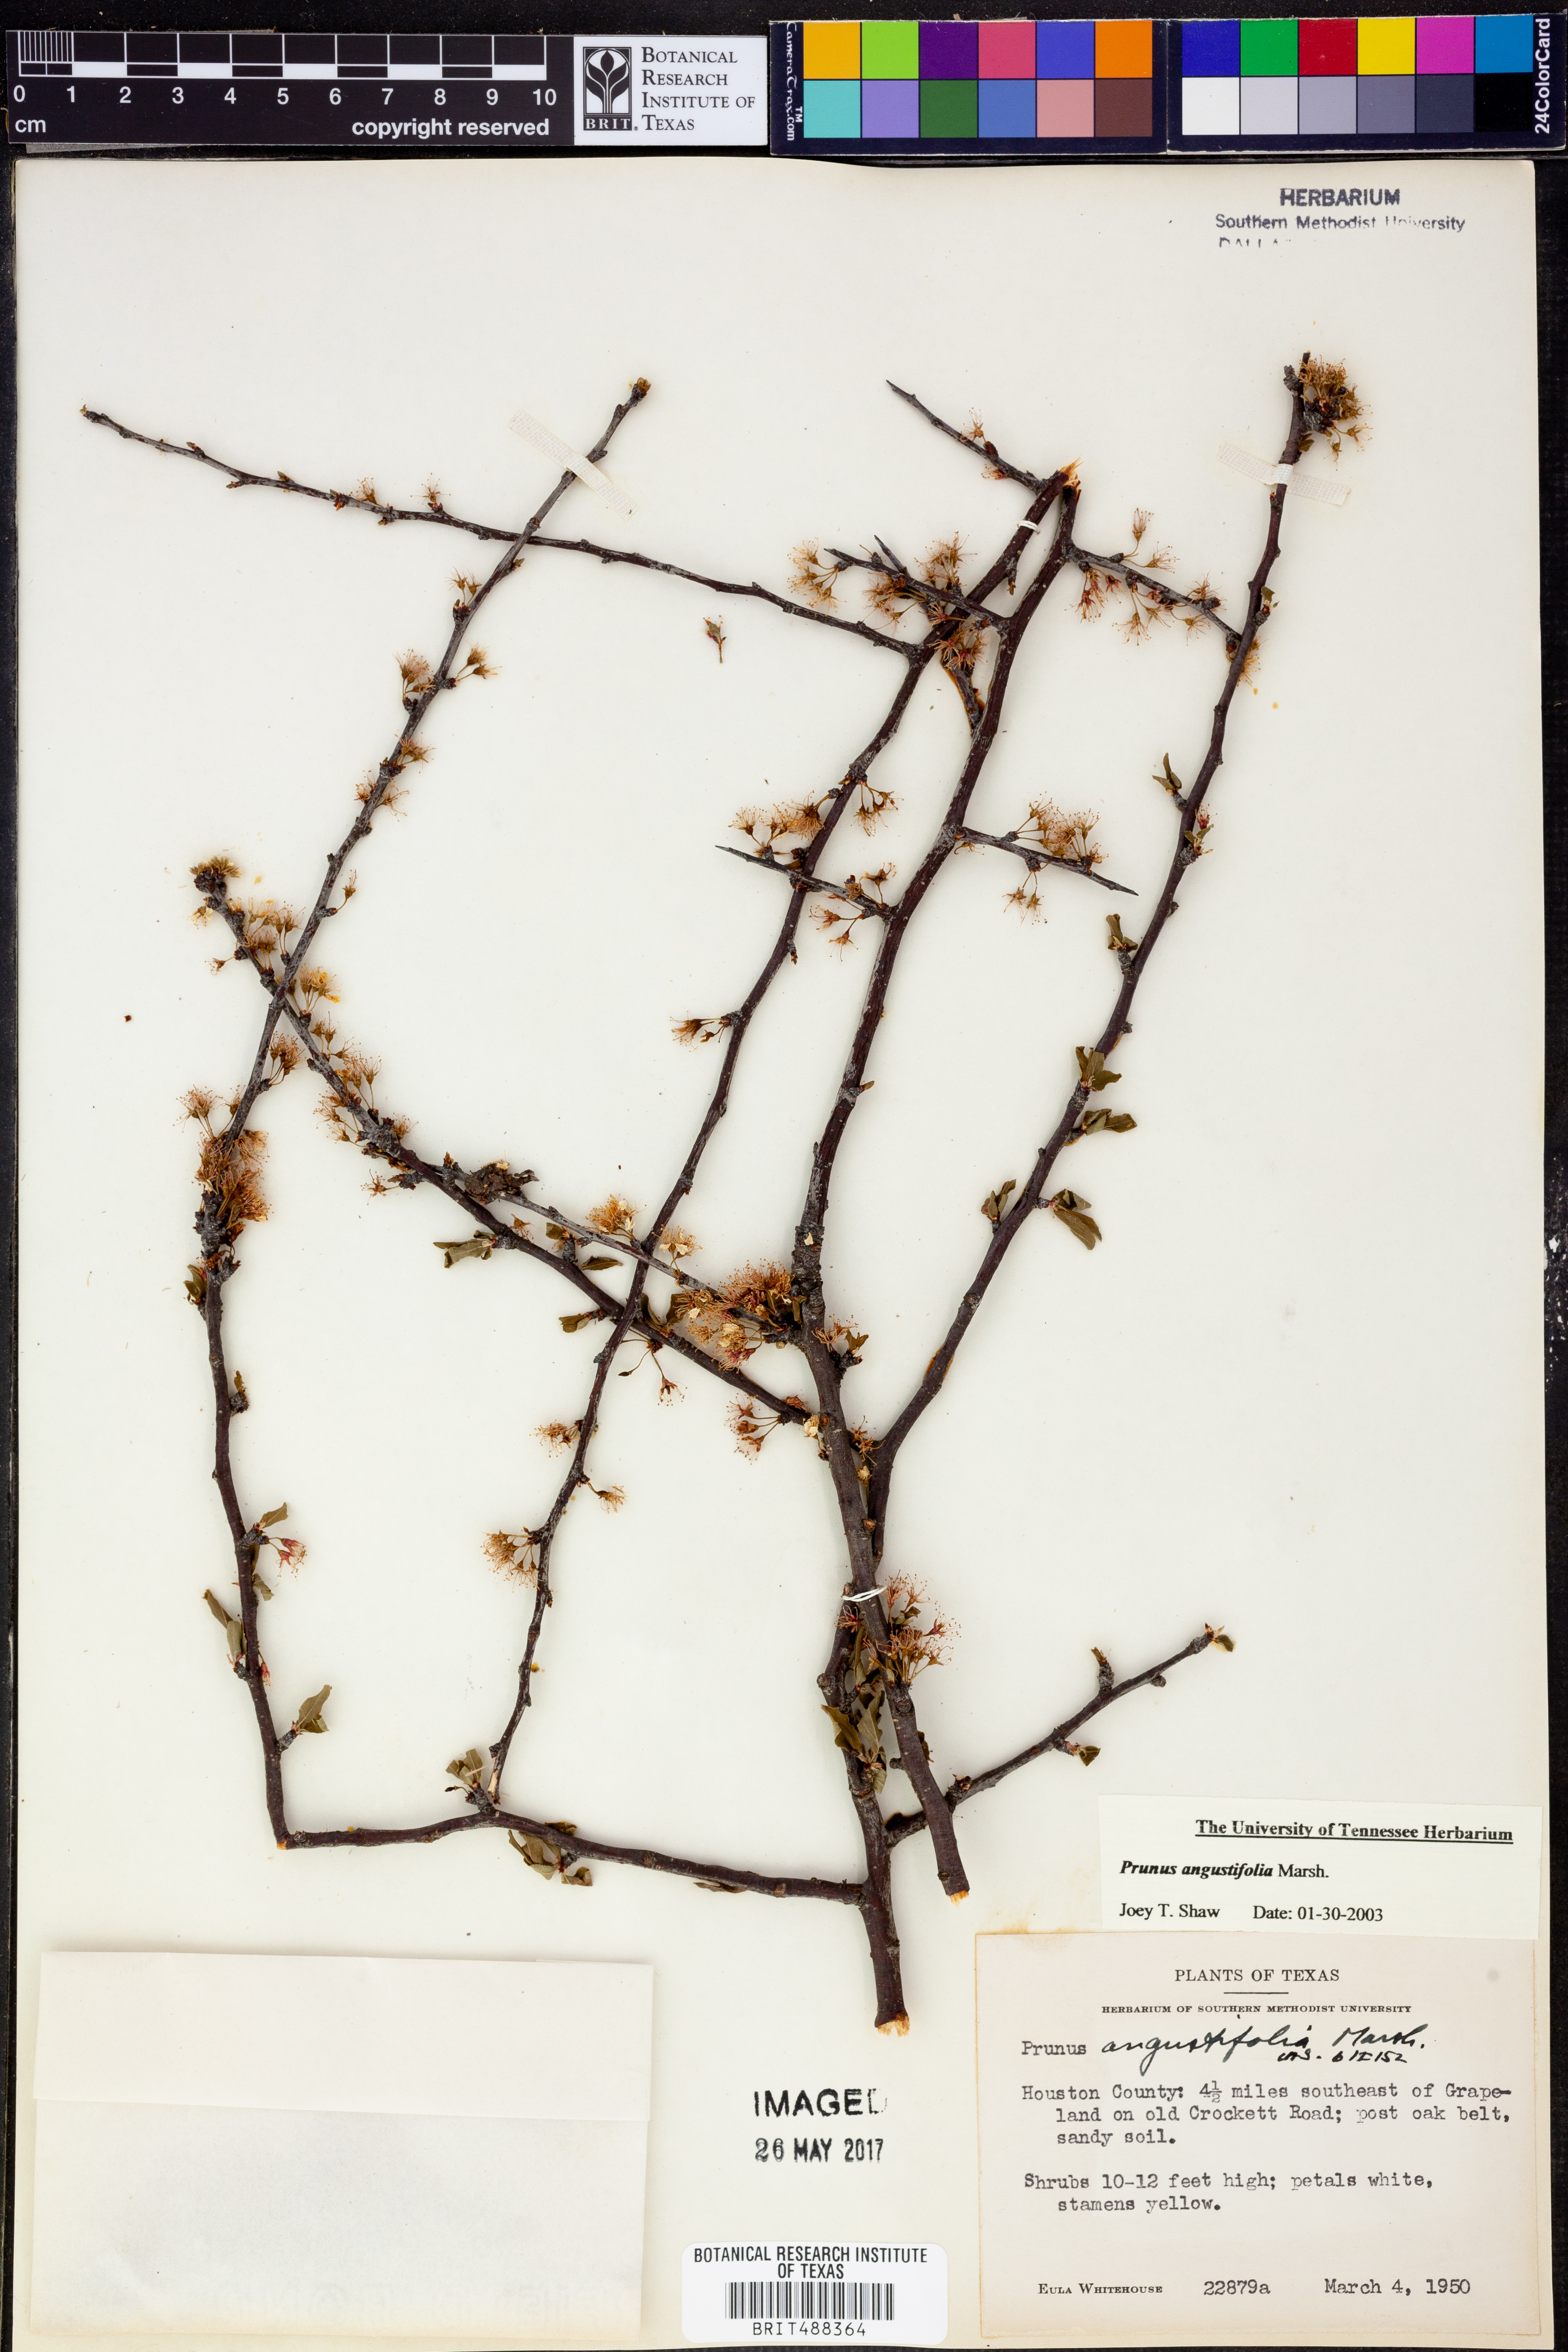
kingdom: Plantae
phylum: Tracheophyta
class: Magnoliopsida
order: Rosales
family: Rosaceae
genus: Prunus
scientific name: Prunus angustifolia
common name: Cherokee plum
